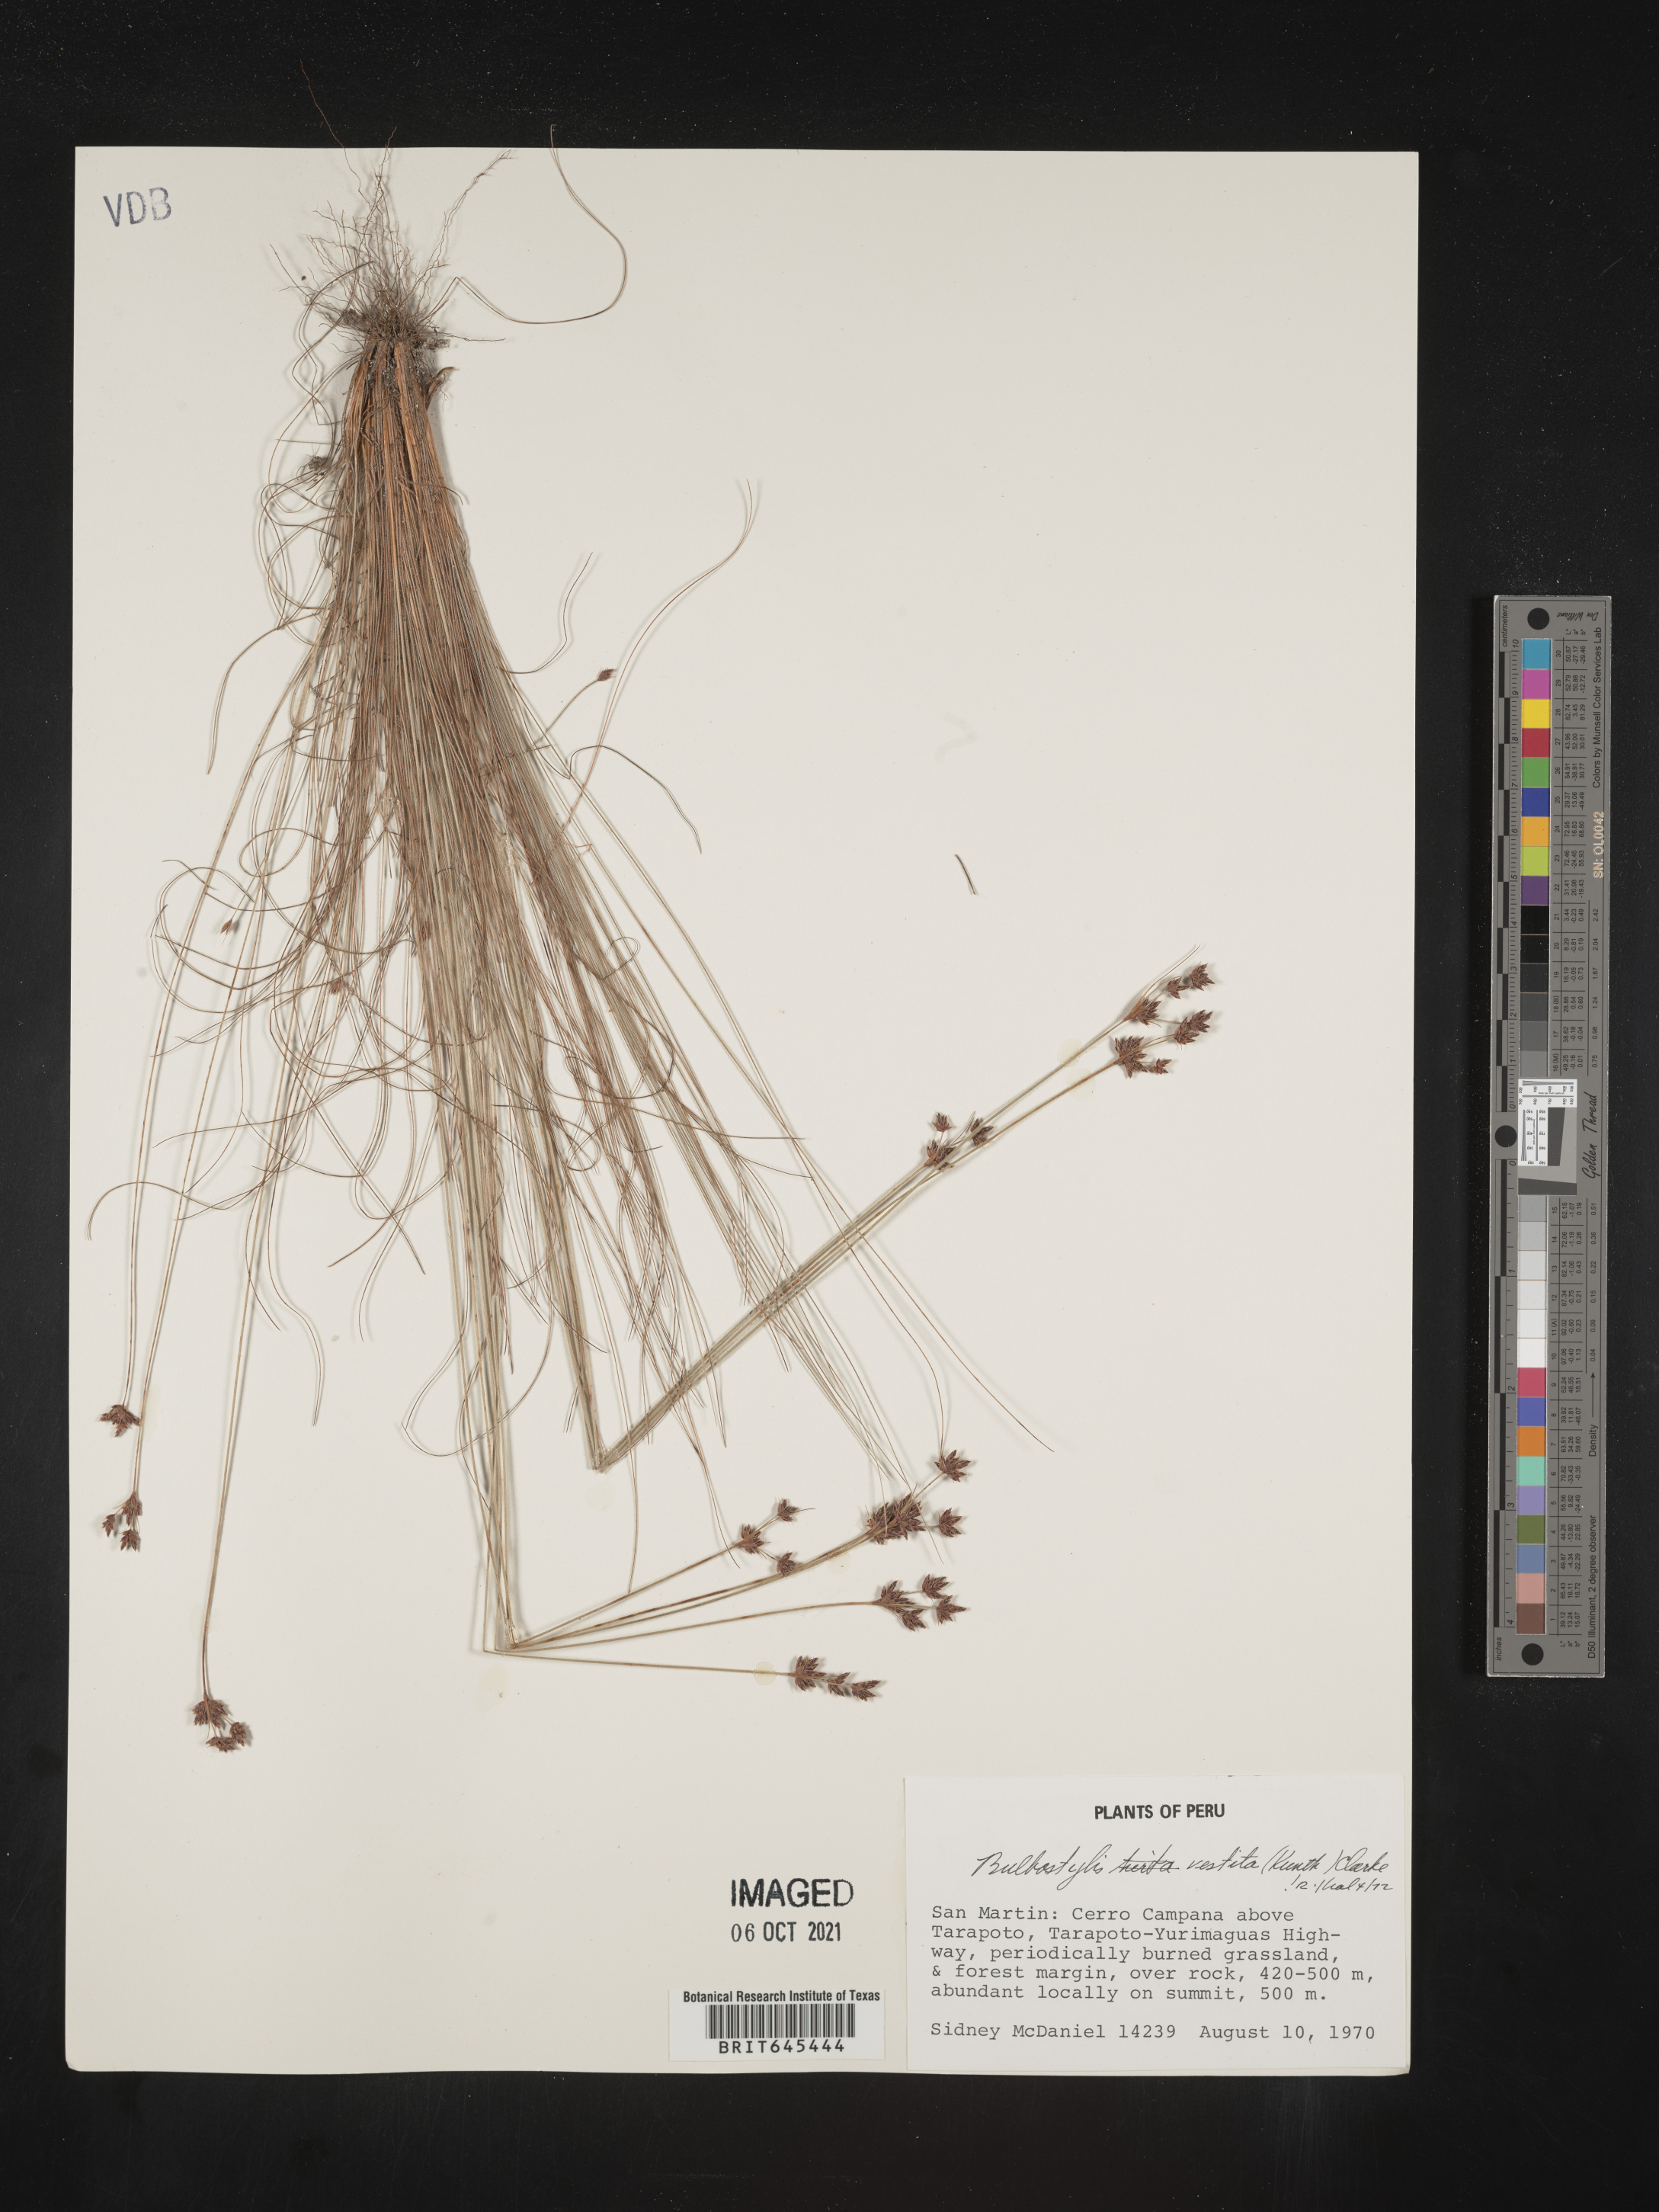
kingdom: Plantae
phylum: Tracheophyta
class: Liliopsida
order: Poales
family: Cyperaceae
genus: Bulbostylis
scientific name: Bulbostylis vestita
